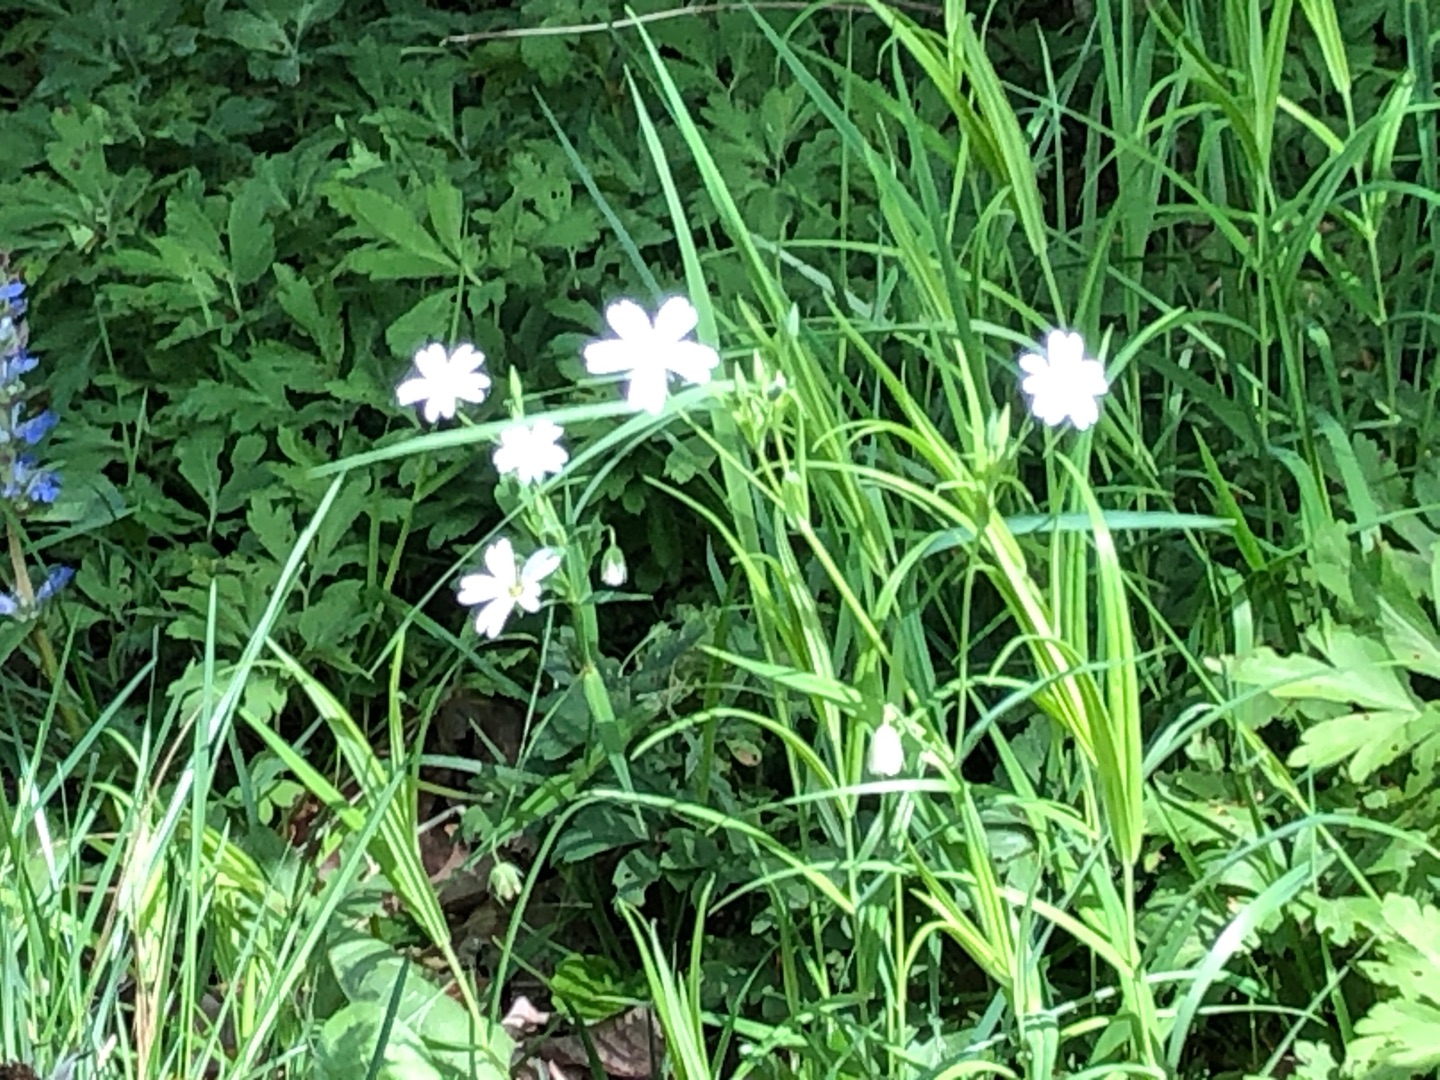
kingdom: Plantae
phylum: Tracheophyta
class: Magnoliopsida
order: Caryophyllales
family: Caryophyllaceae
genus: Rabelera
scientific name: Rabelera holostea
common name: Stor fladstjerne
